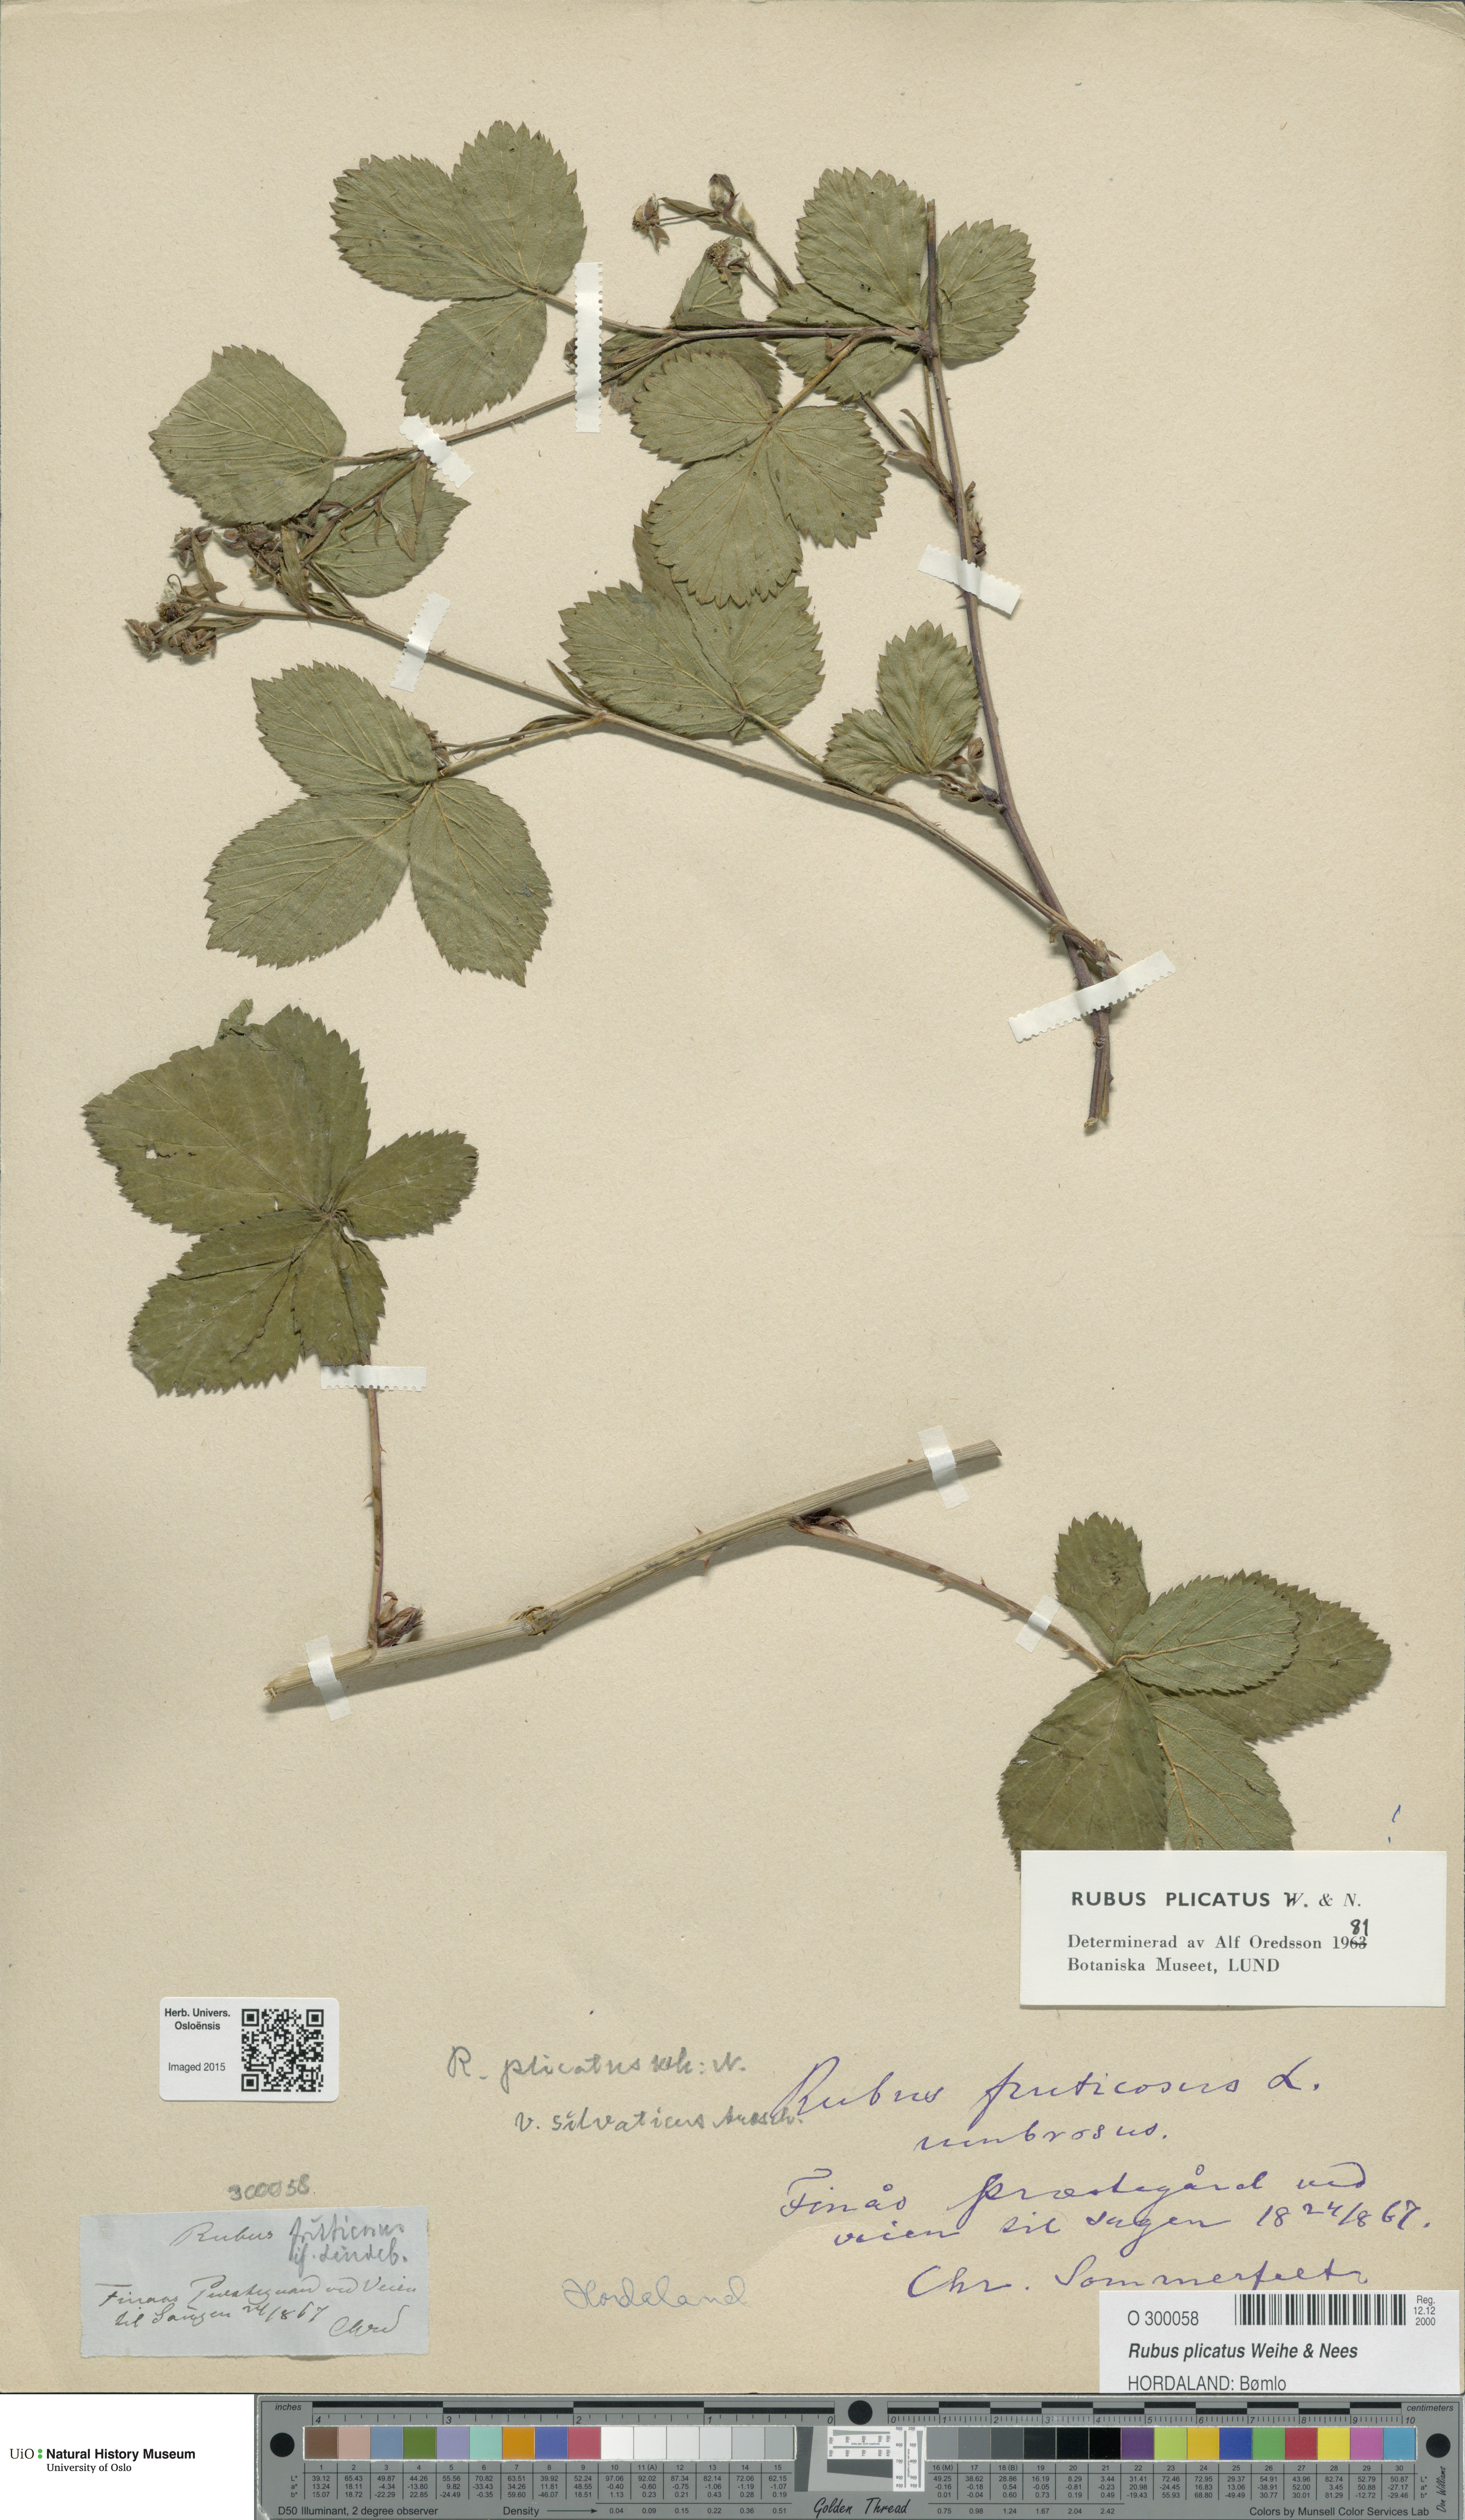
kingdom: Plantae
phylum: Tracheophyta
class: Magnoliopsida
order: Rosales
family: Rosaceae
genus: Rubus
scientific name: Rubus fruticosus
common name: Blackberry, bramble
